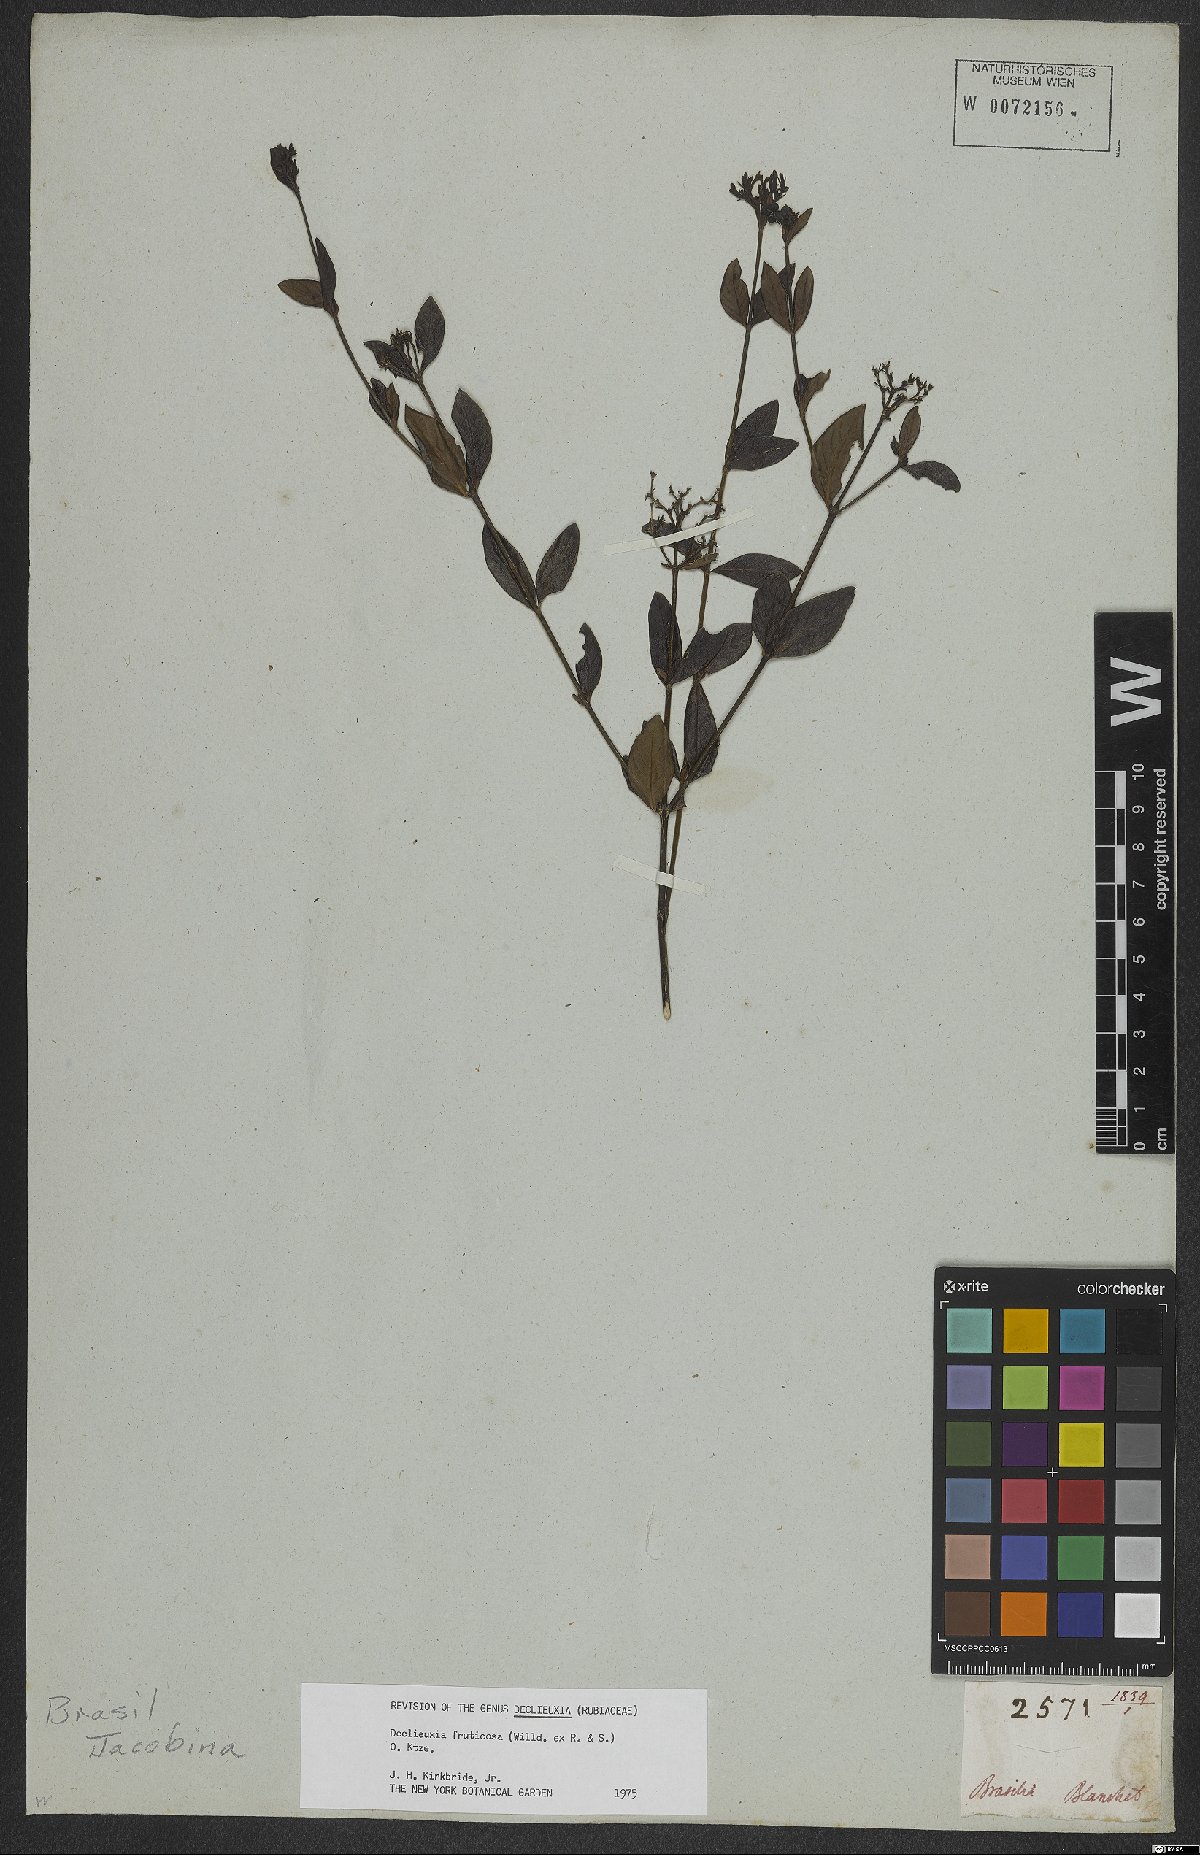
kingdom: Plantae
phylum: Tracheophyta
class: Magnoliopsida
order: Gentianales
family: Rubiaceae
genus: Declieuxia
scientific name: Declieuxia fruticosa
